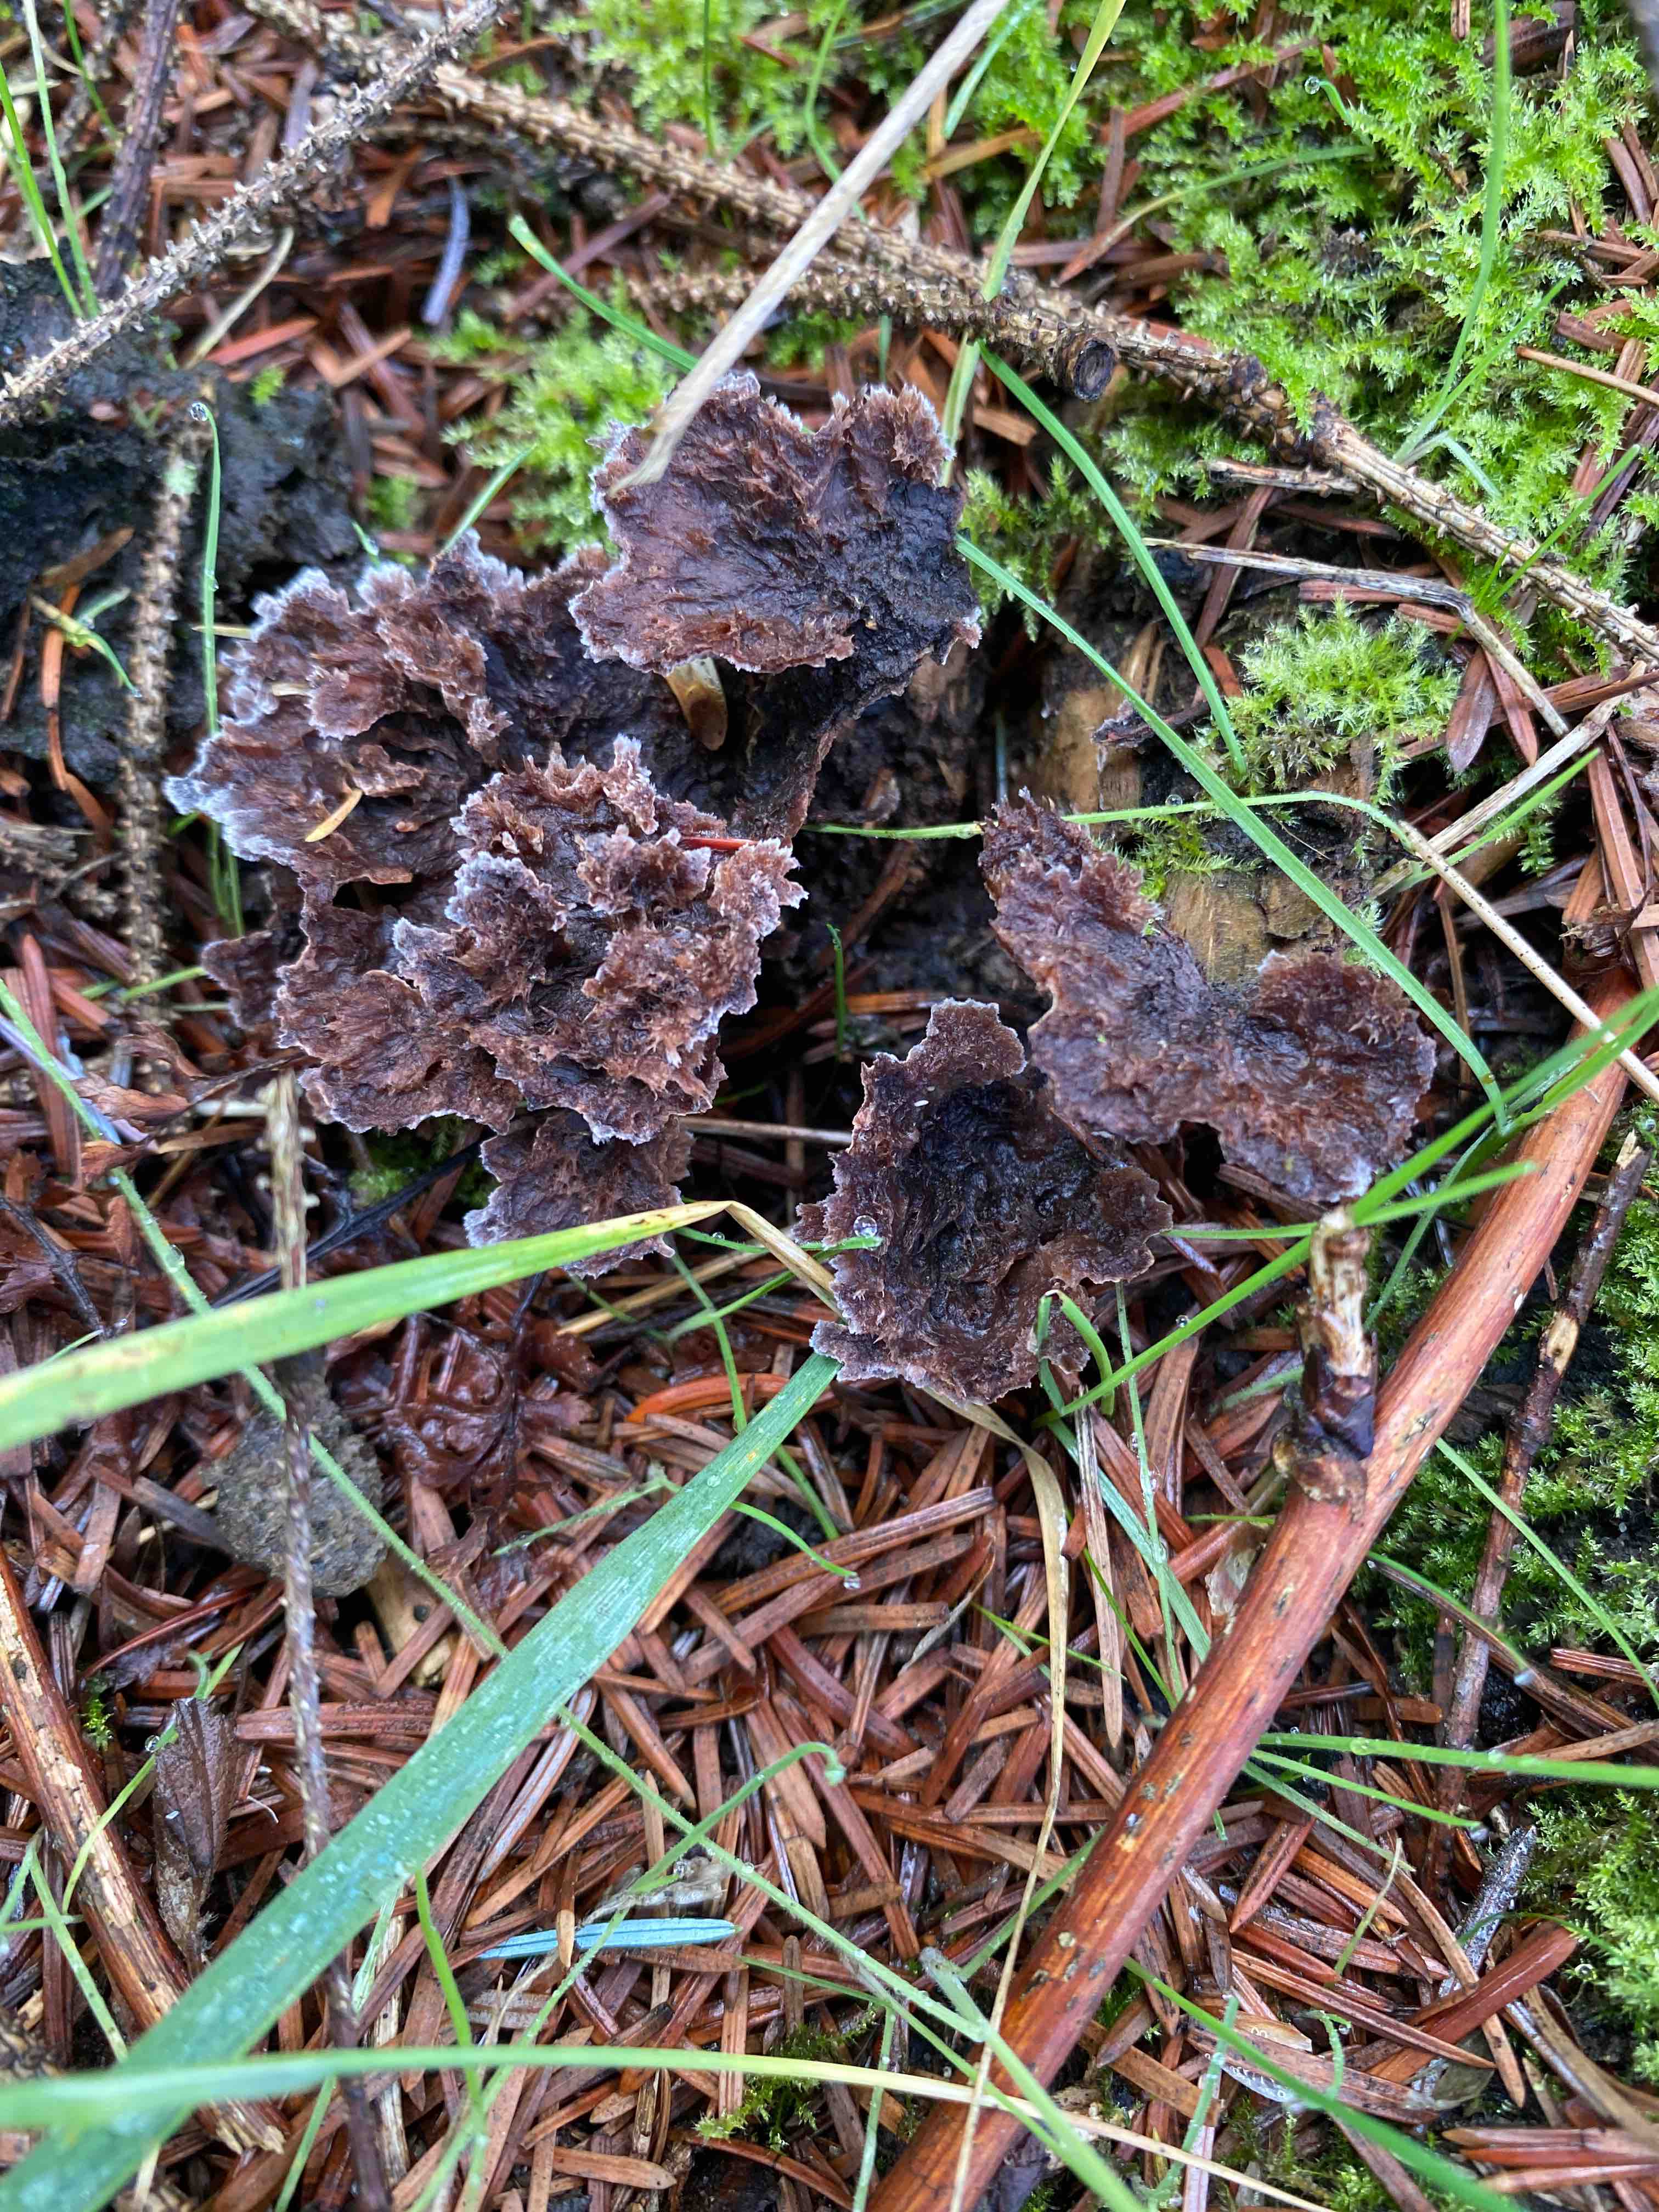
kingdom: Fungi
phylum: Basidiomycota
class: Agaricomycetes
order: Thelephorales
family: Thelephoraceae
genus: Thelephora
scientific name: Thelephora terrestris
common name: fliget frynsesvamp
